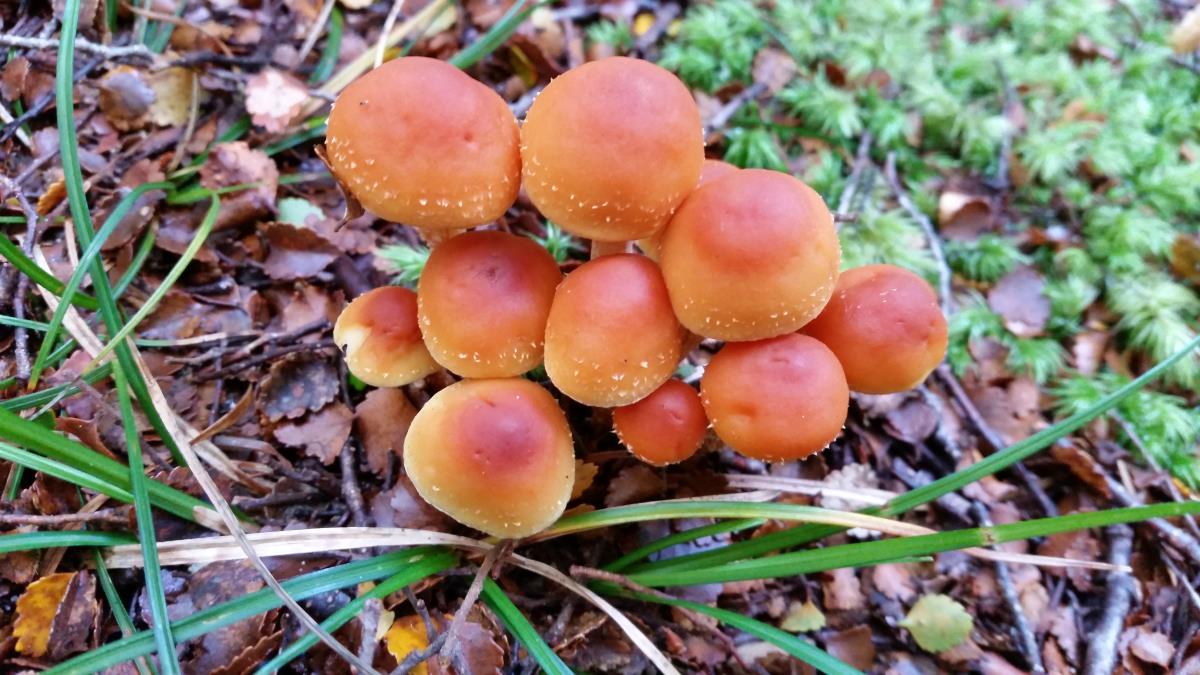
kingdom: Fungi
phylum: Basidiomycota
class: Agaricomycetes
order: Agaricales
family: Strophariaceae
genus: Hypholoma
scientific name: Hypholoma australianum
